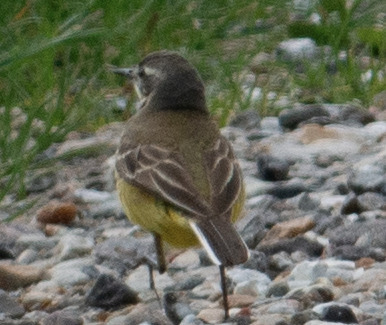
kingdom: Animalia
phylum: Chordata
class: Aves
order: Passeriformes
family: Motacillidae
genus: Motacilla
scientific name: Motacilla flava
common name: Gul vipstjert
